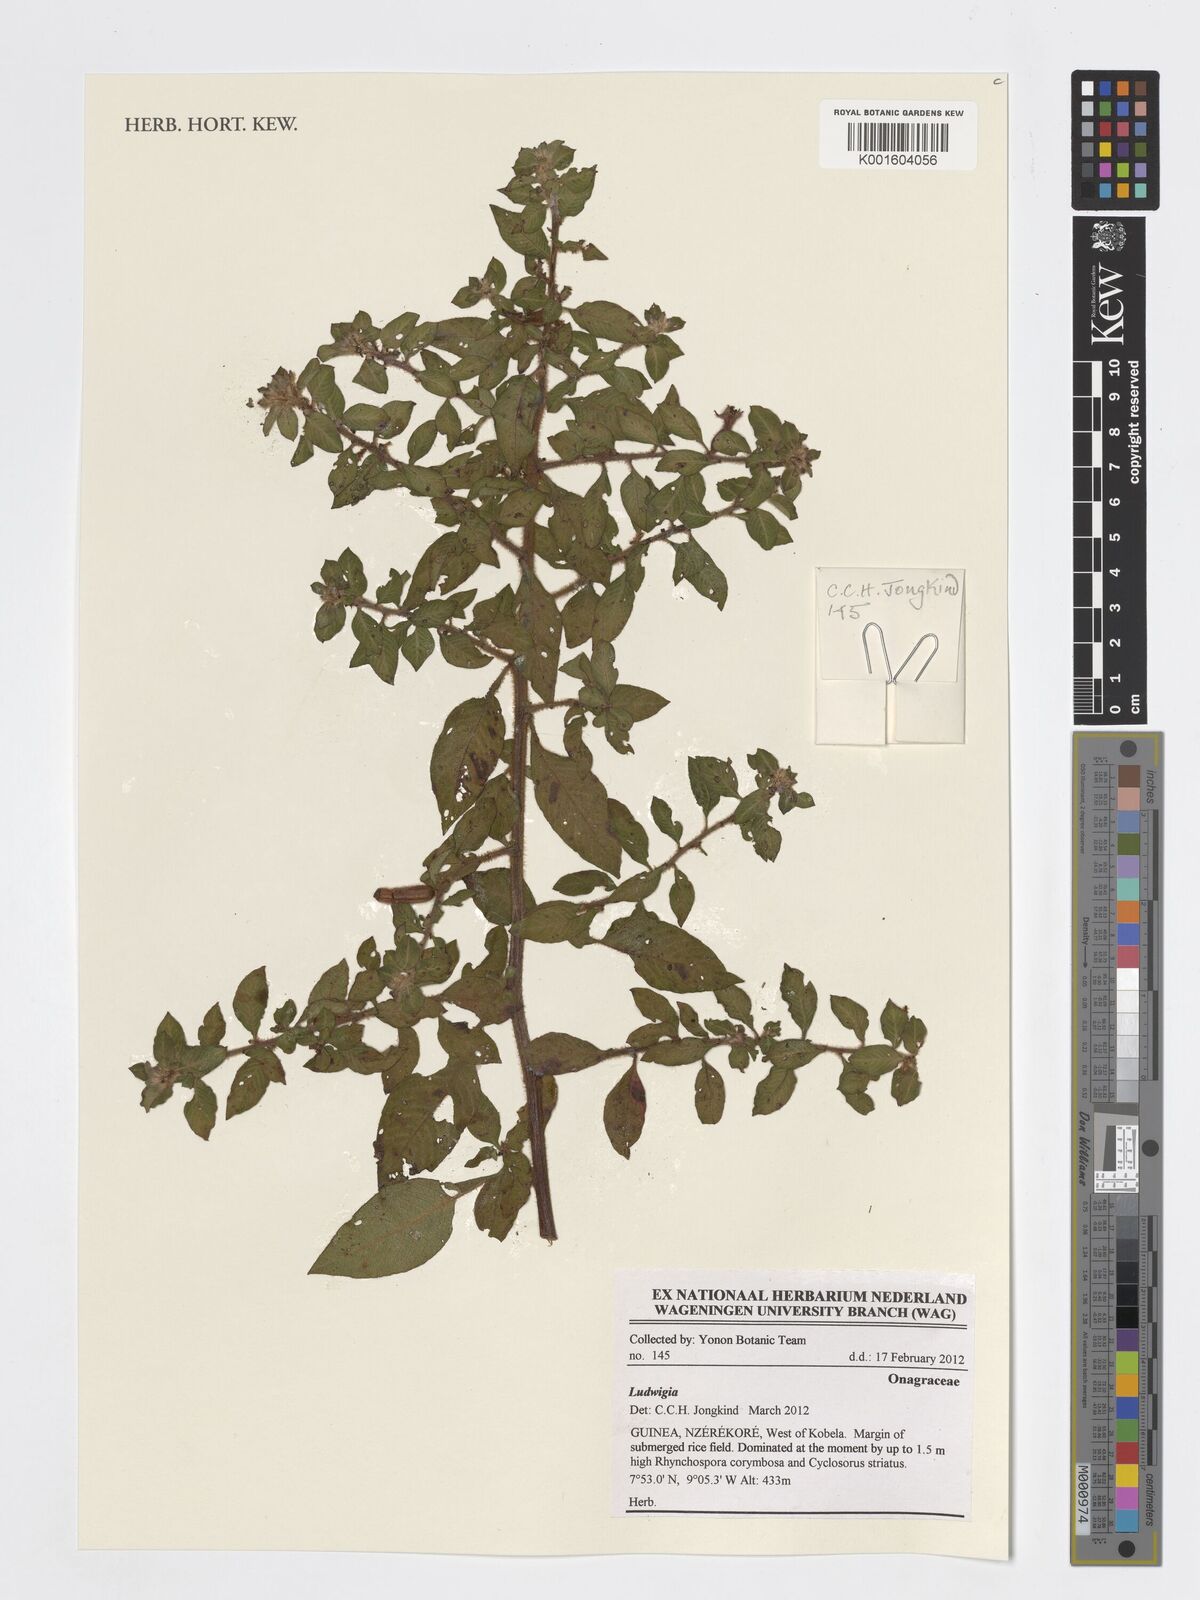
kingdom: Plantae
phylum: Tracheophyta
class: Magnoliopsida
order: Myrtales
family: Onagraceae
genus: Ludwigia
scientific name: Ludwigia
